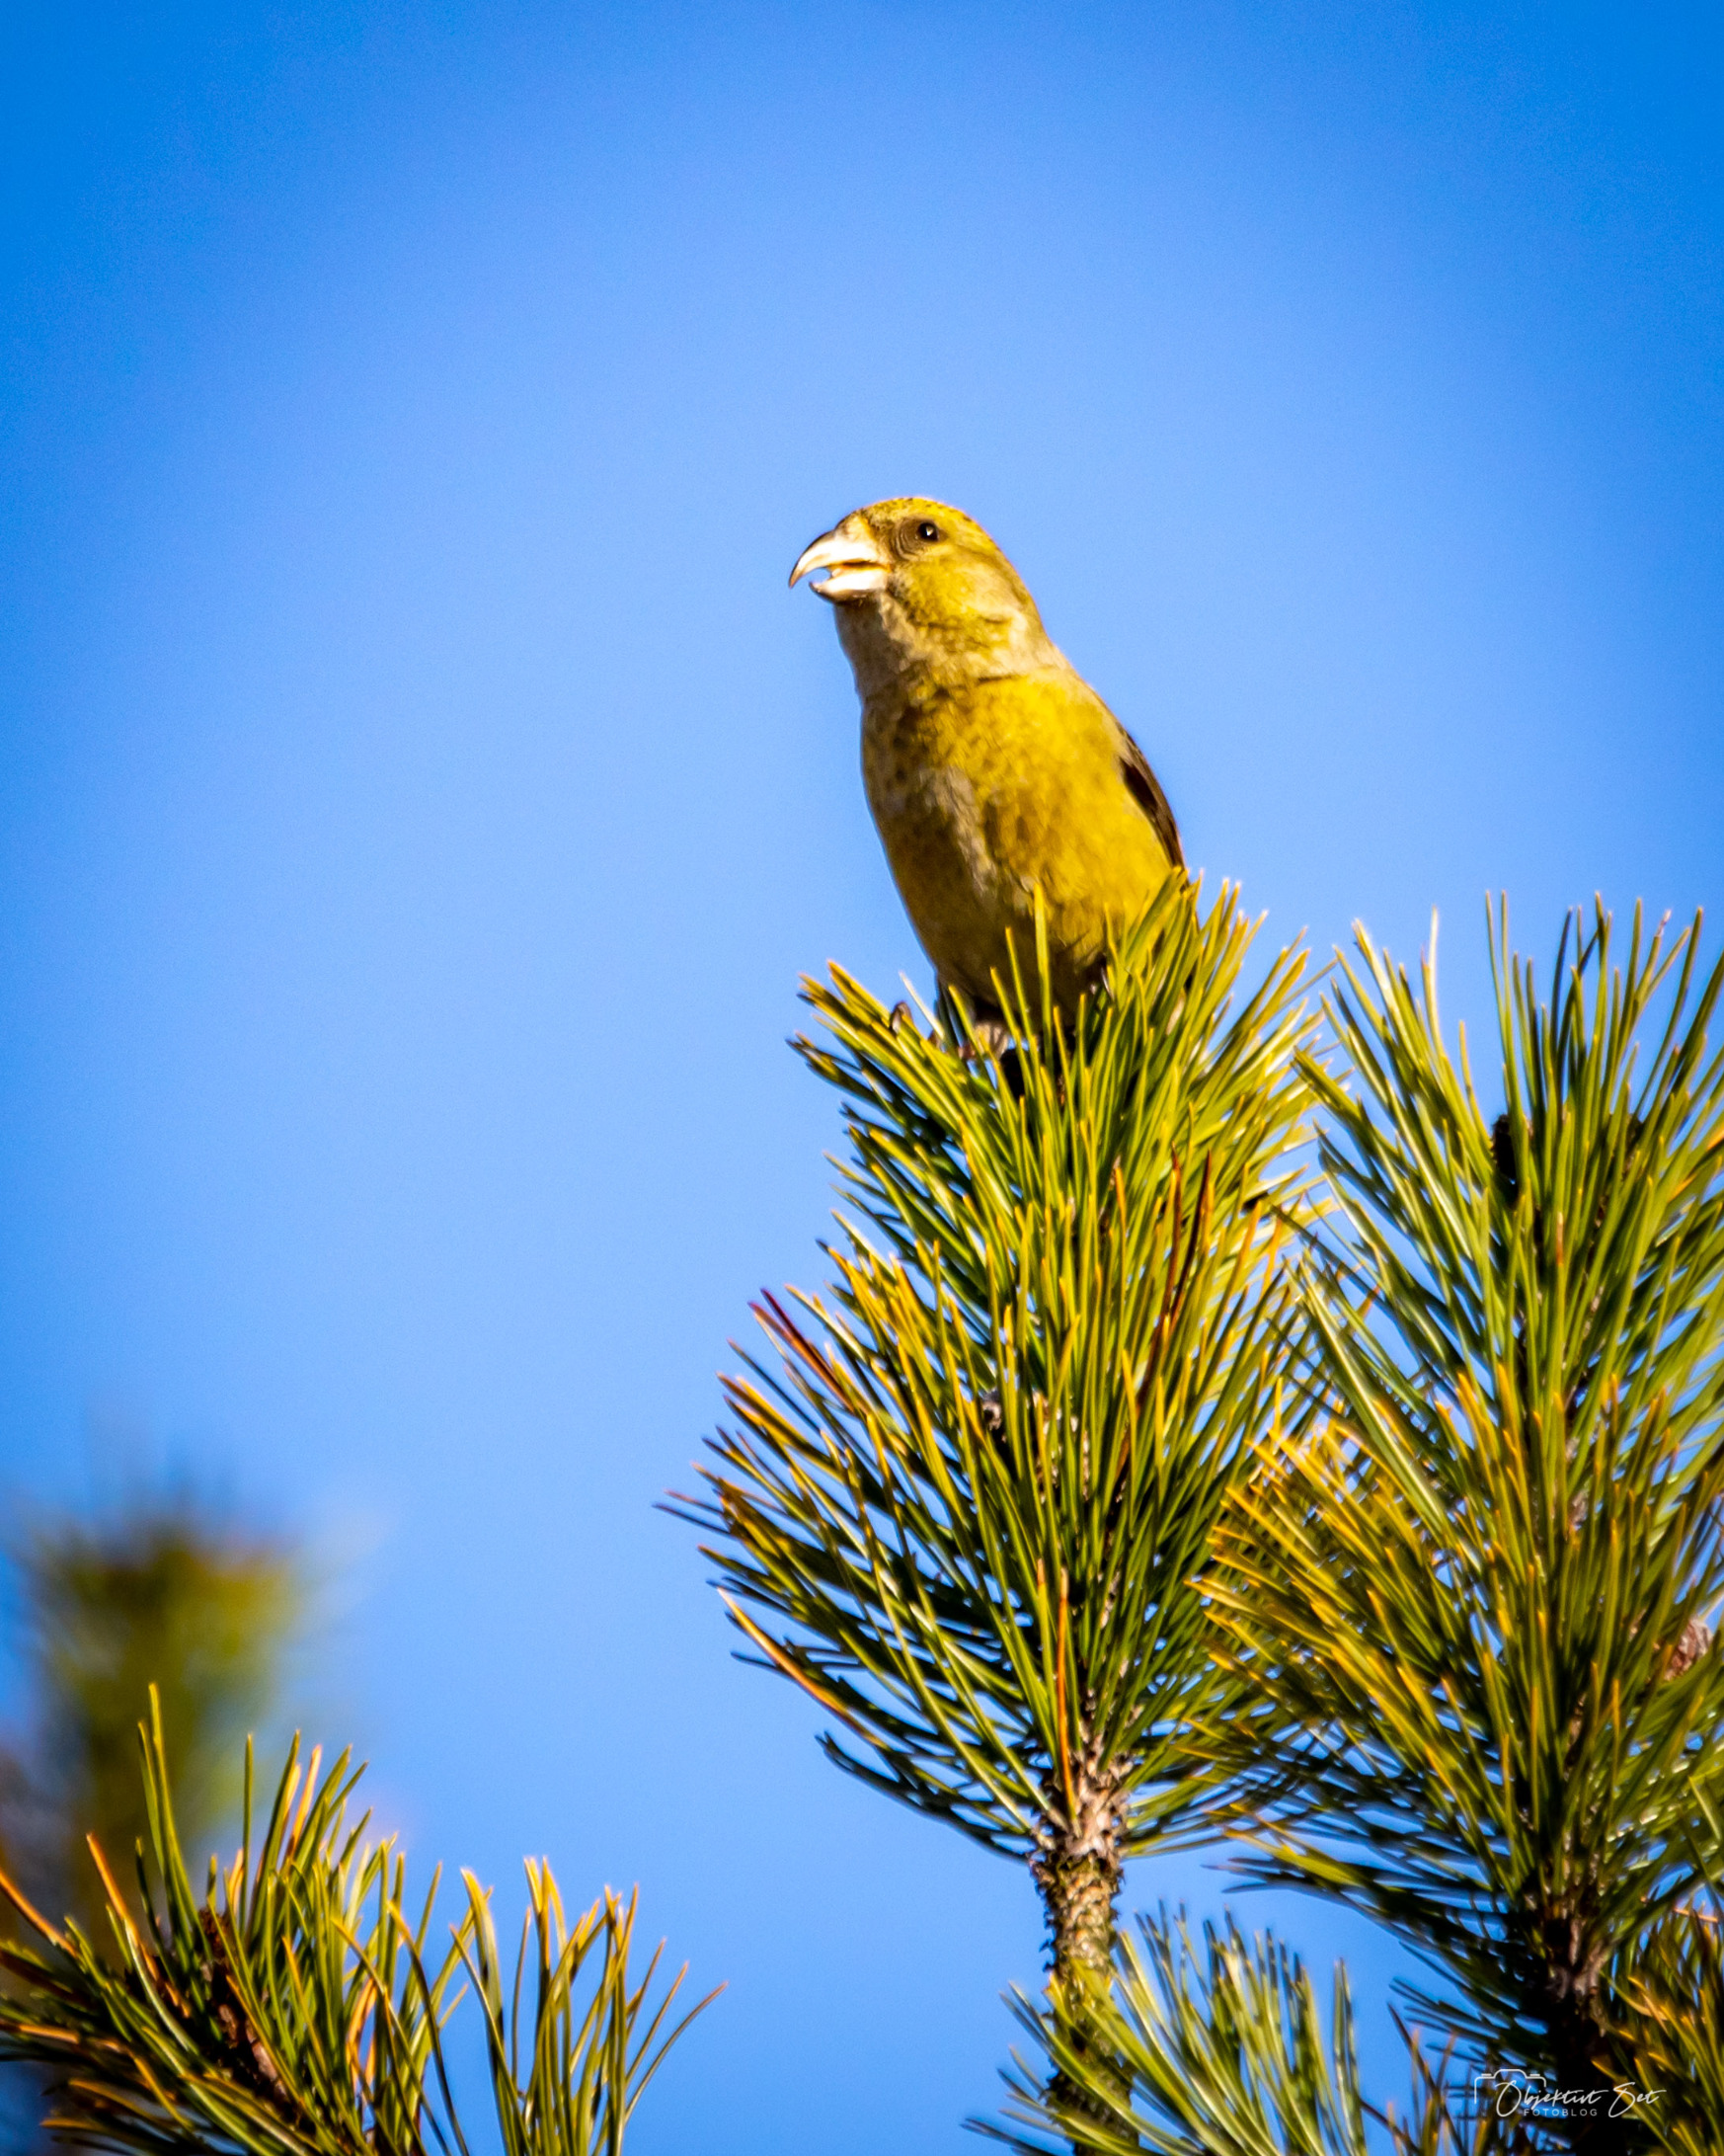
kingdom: Animalia
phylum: Chordata
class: Aves
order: Passeriformes
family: Fringillidae
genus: Loxia
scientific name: Loxia curvirostra
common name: Lille korsnæb
